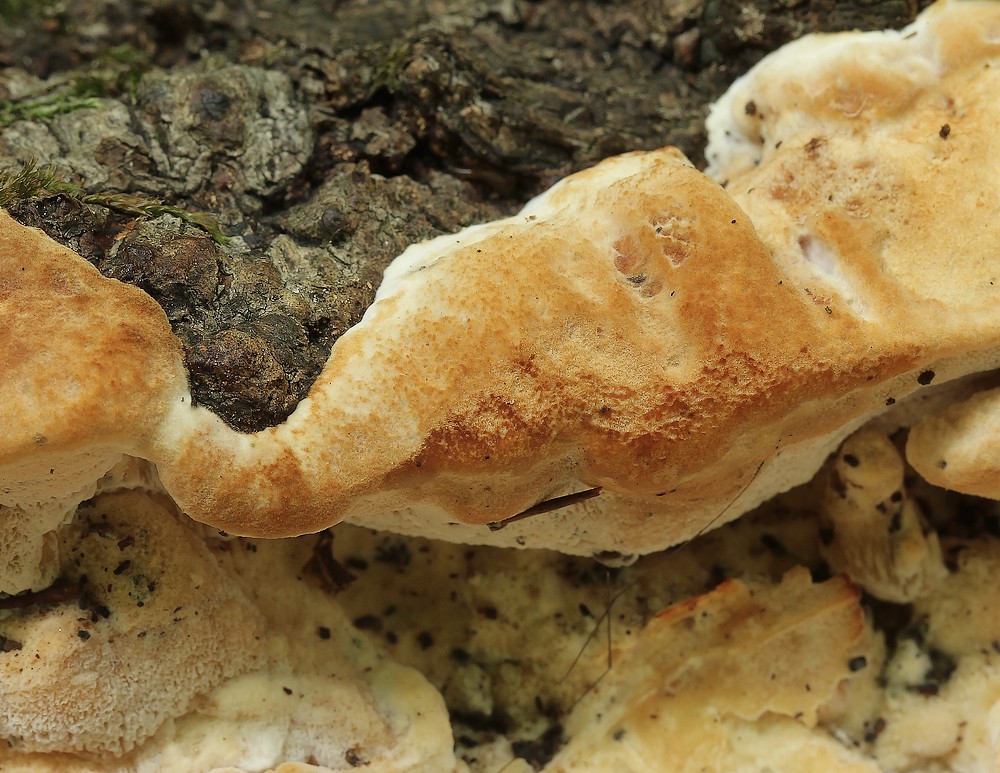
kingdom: Fungi
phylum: Basidiomycota
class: Agaricomycetes
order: Polyporales
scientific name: Polyporales
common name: poresvampordenen
